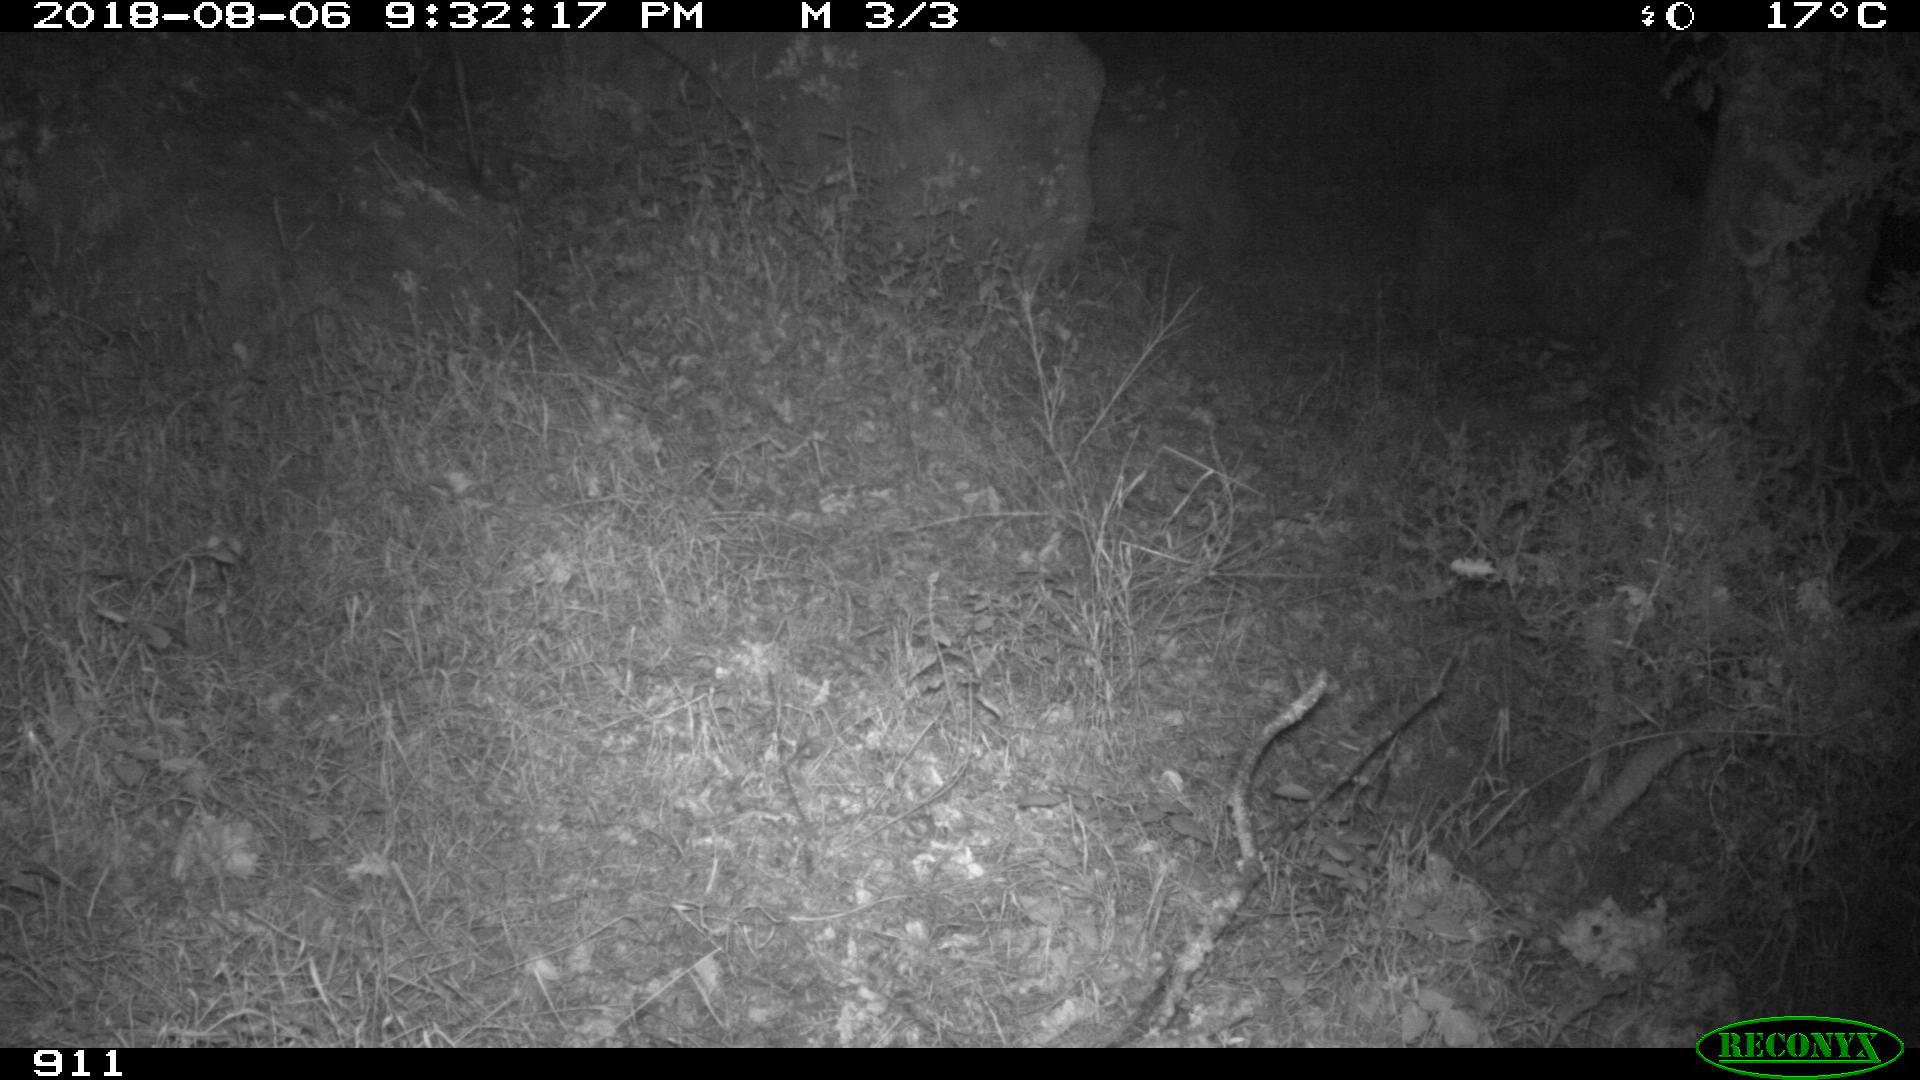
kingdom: Animalia
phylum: Chordata
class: Mammalia
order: Artiodactyla
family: Cervidae
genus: Capreolus
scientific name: Capreolus capreolus
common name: Western roe deer
